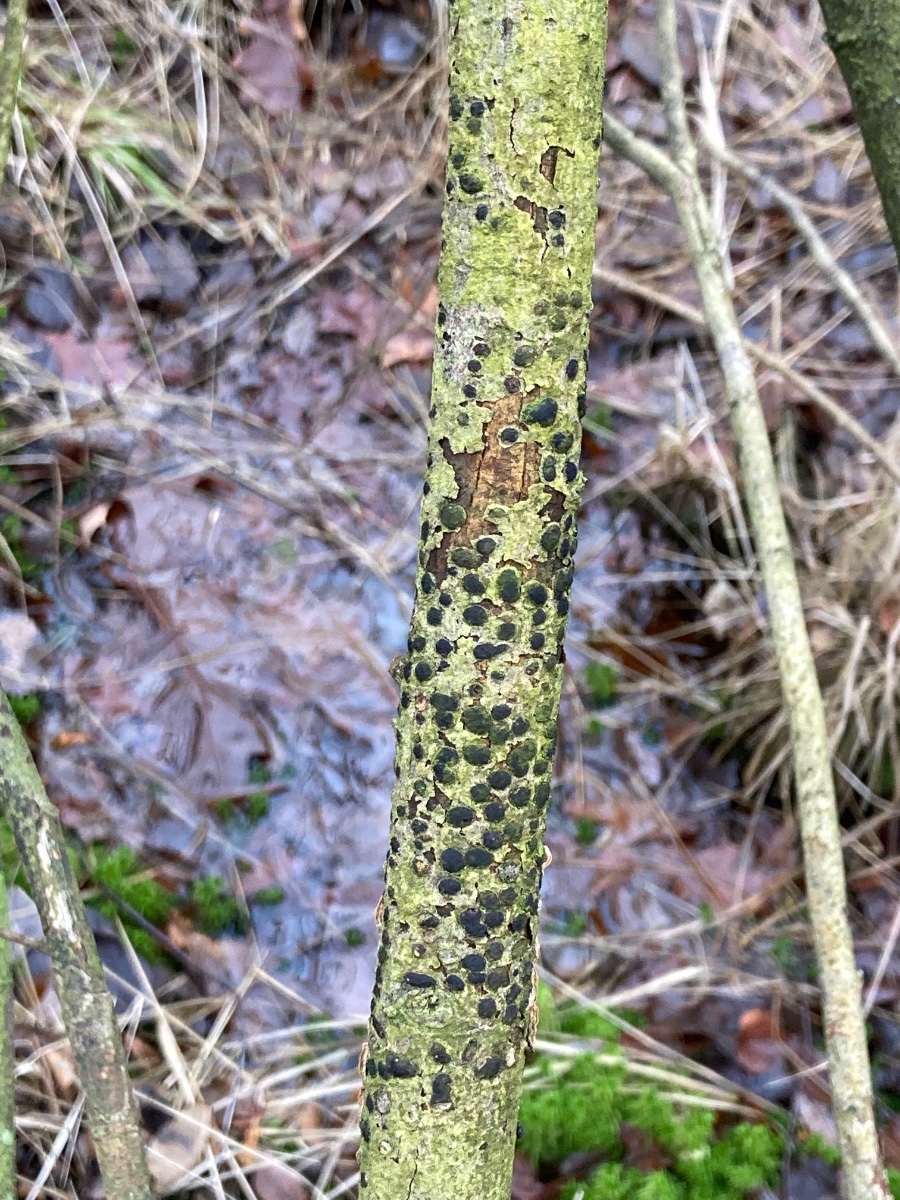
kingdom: Fungi
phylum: Ascomycota
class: Sordariomycetes
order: Xylariales
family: Diatrypaceae
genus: Diatrype
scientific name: Diatrype bullata
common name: pile-kulskorpe
